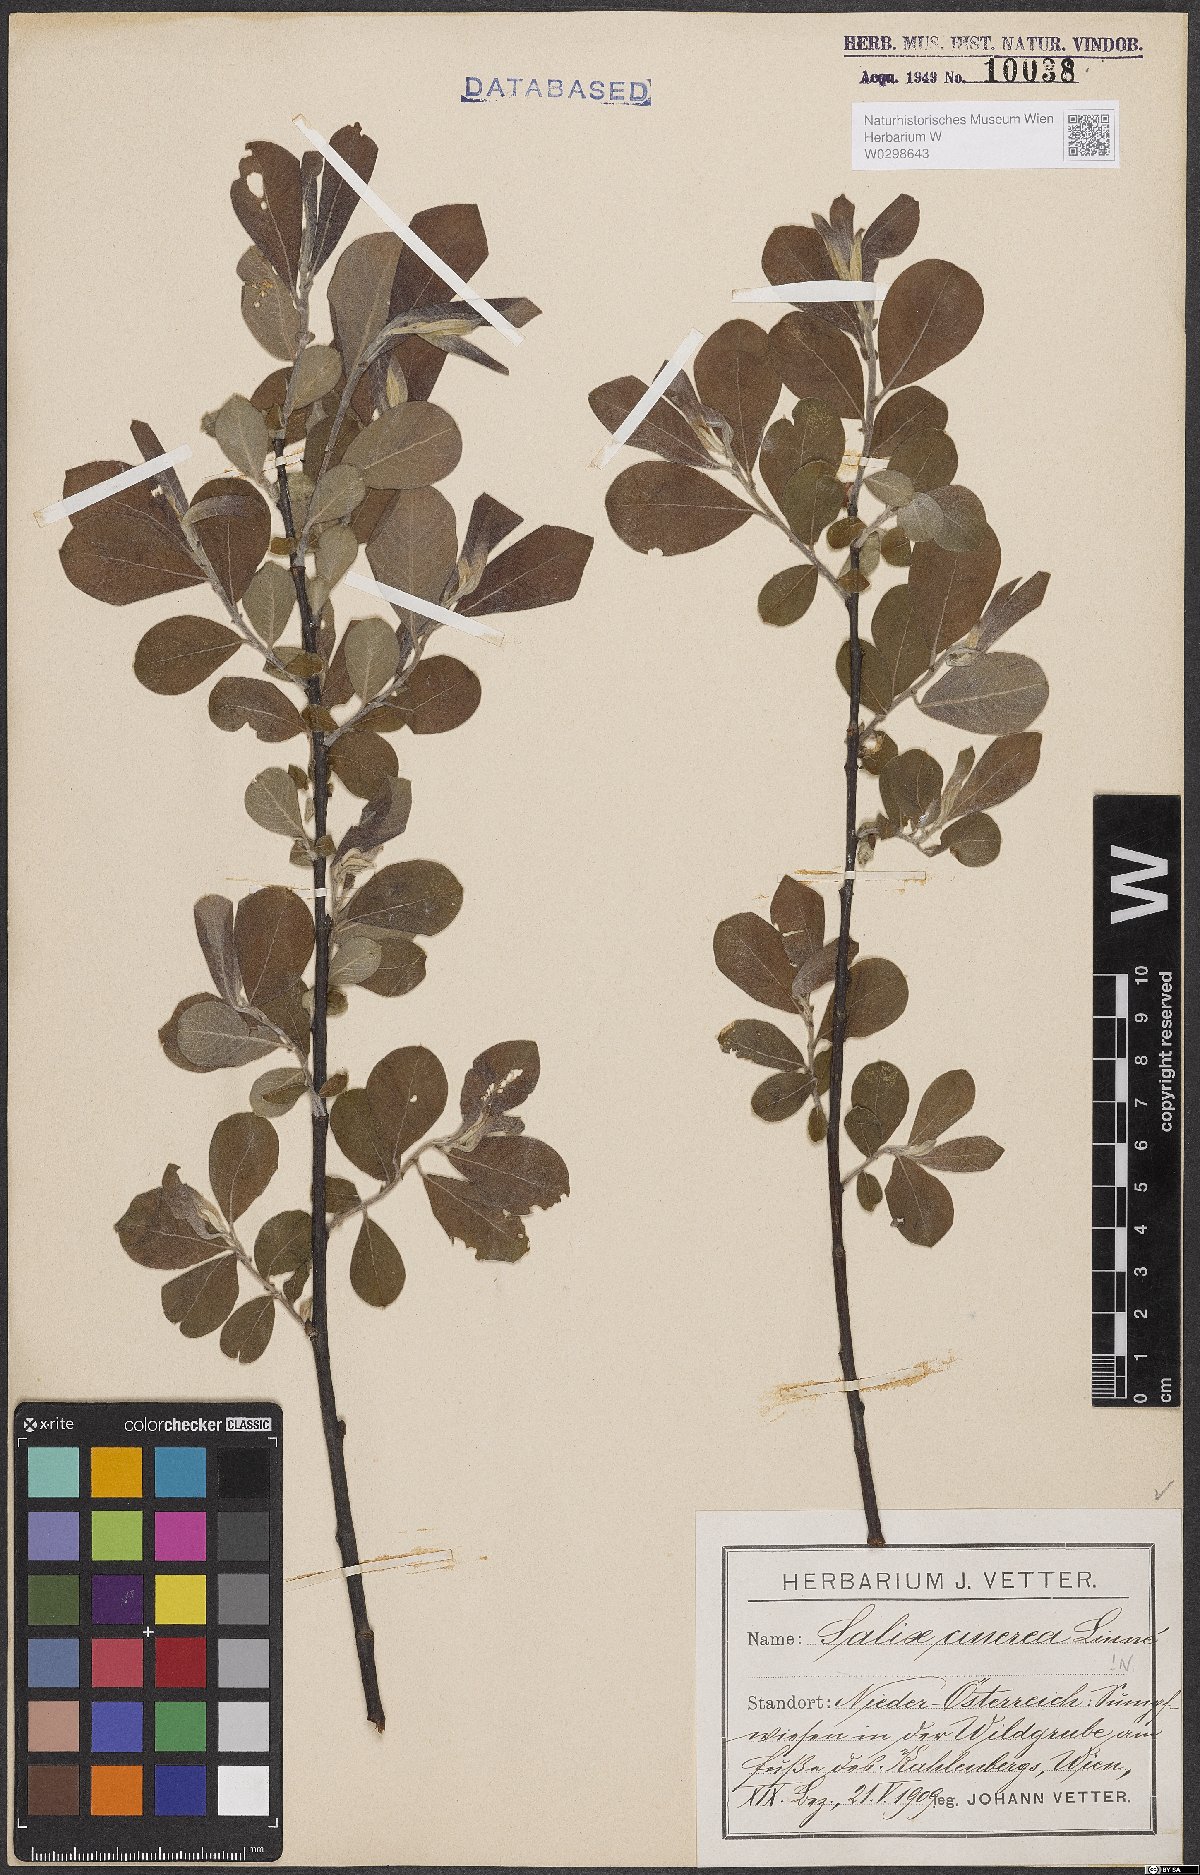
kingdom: Plantae
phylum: Tracheophyta
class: Magnoliopsida
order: Malpighiales
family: Salicaceae
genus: Salix
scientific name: Salix cinerea
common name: Common sallow
